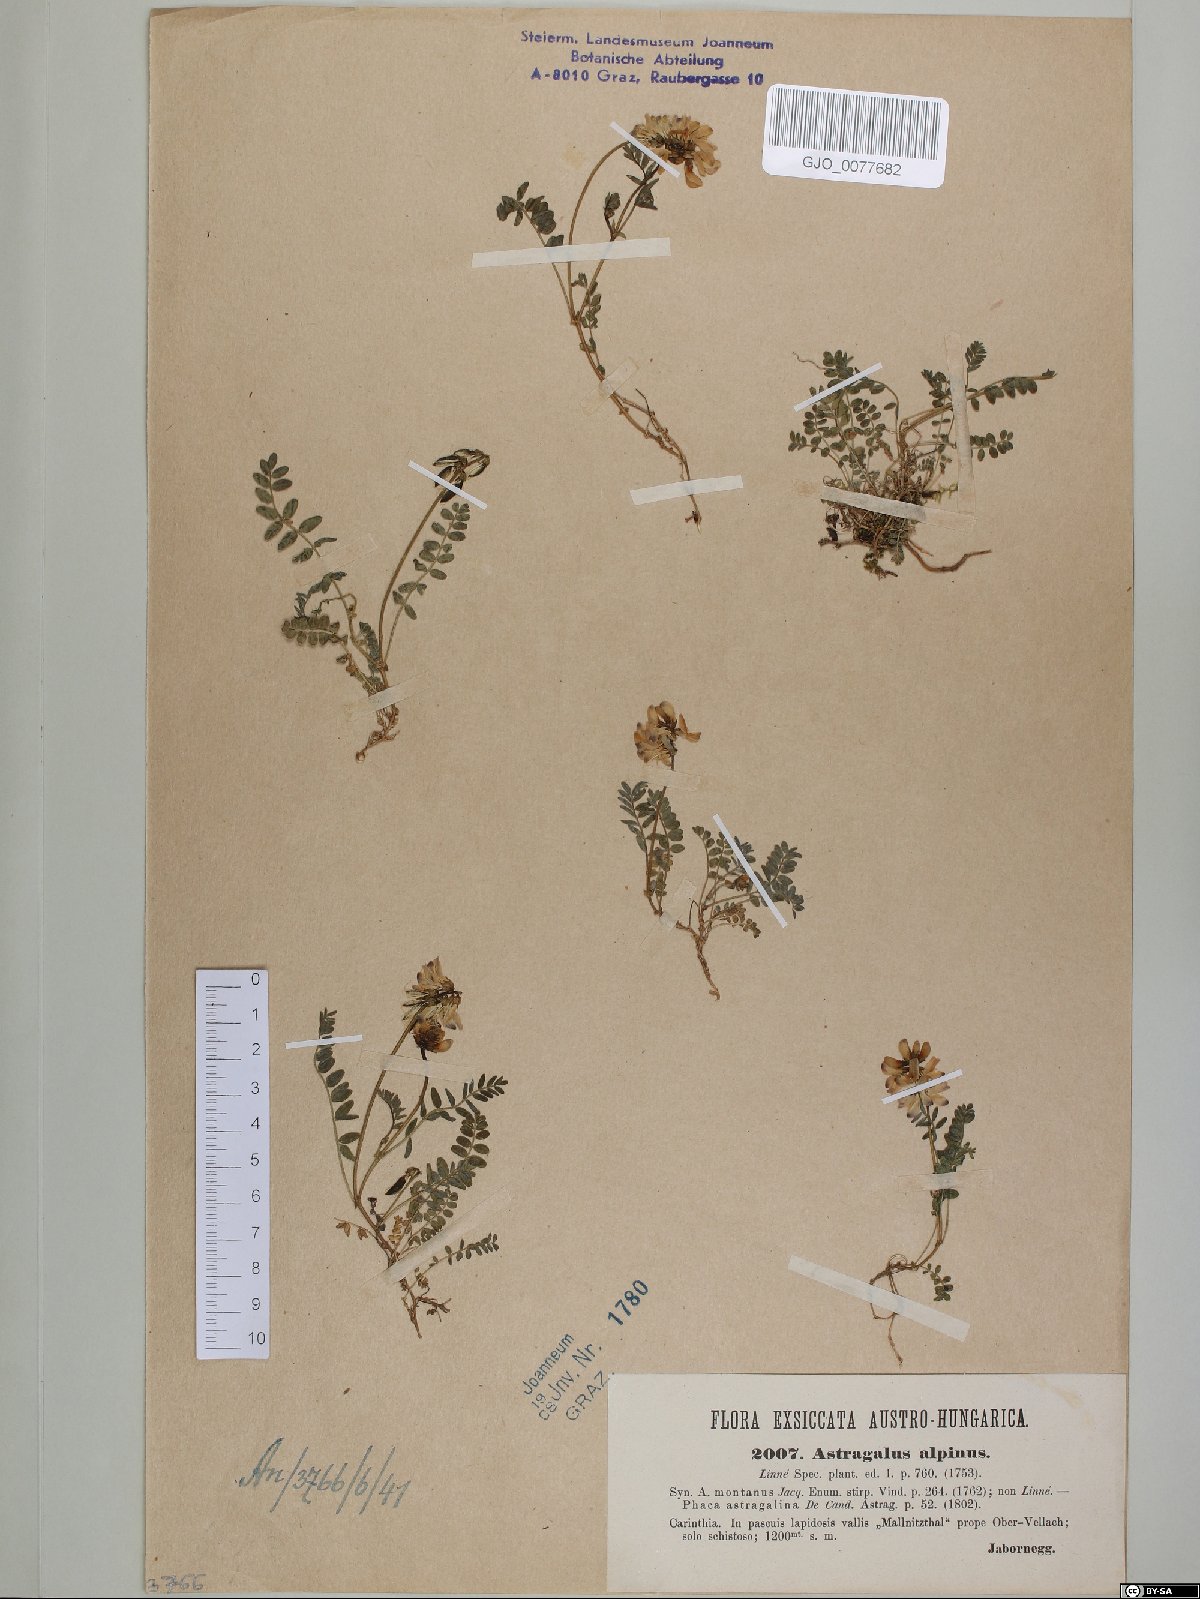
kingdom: Plantae
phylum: Tracheophyta
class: Magnoliopsida
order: Fabales
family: Fabaceae
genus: Astragalus
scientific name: Astragalus alpinus
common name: Alpine milk-vetch
